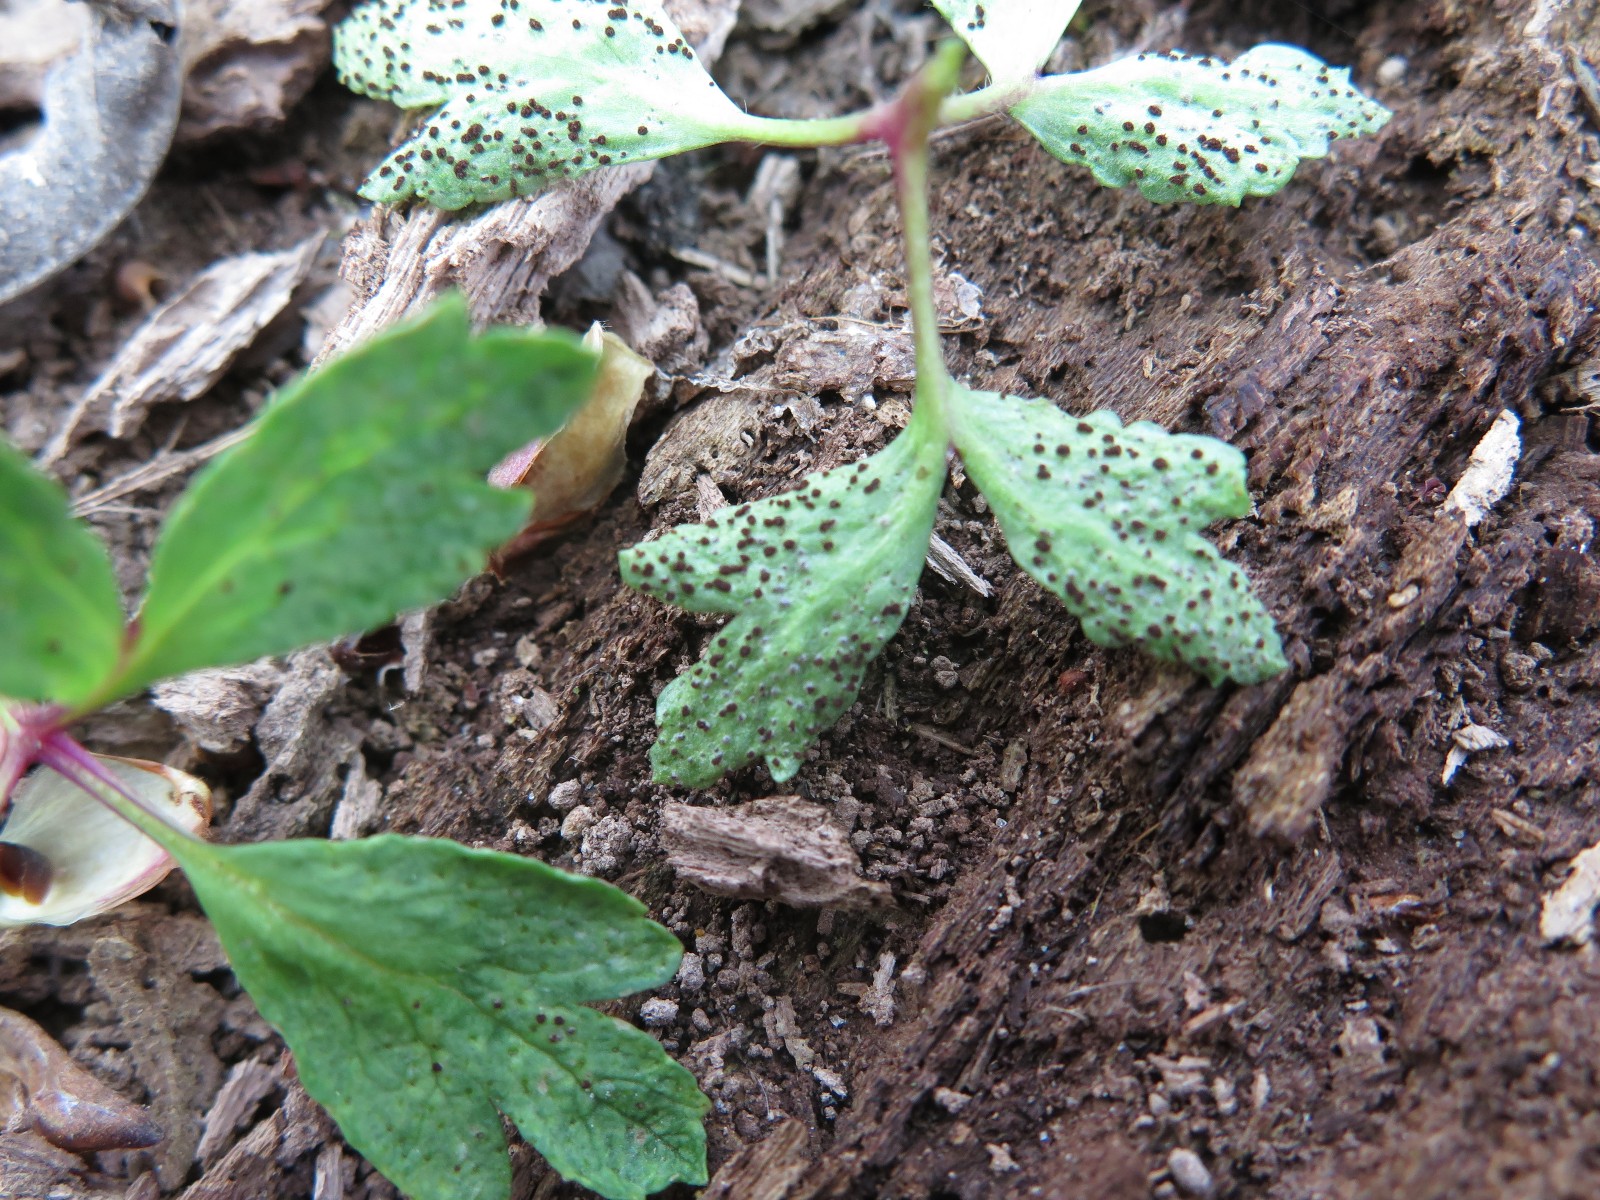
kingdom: Fungi
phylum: Basidiomycota
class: Pucciniomycetes
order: Pucciniales
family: Tranzscheliaceae
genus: Tranzschelia
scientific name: Tranzschelia anemones
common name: anemone-knæksporerust
